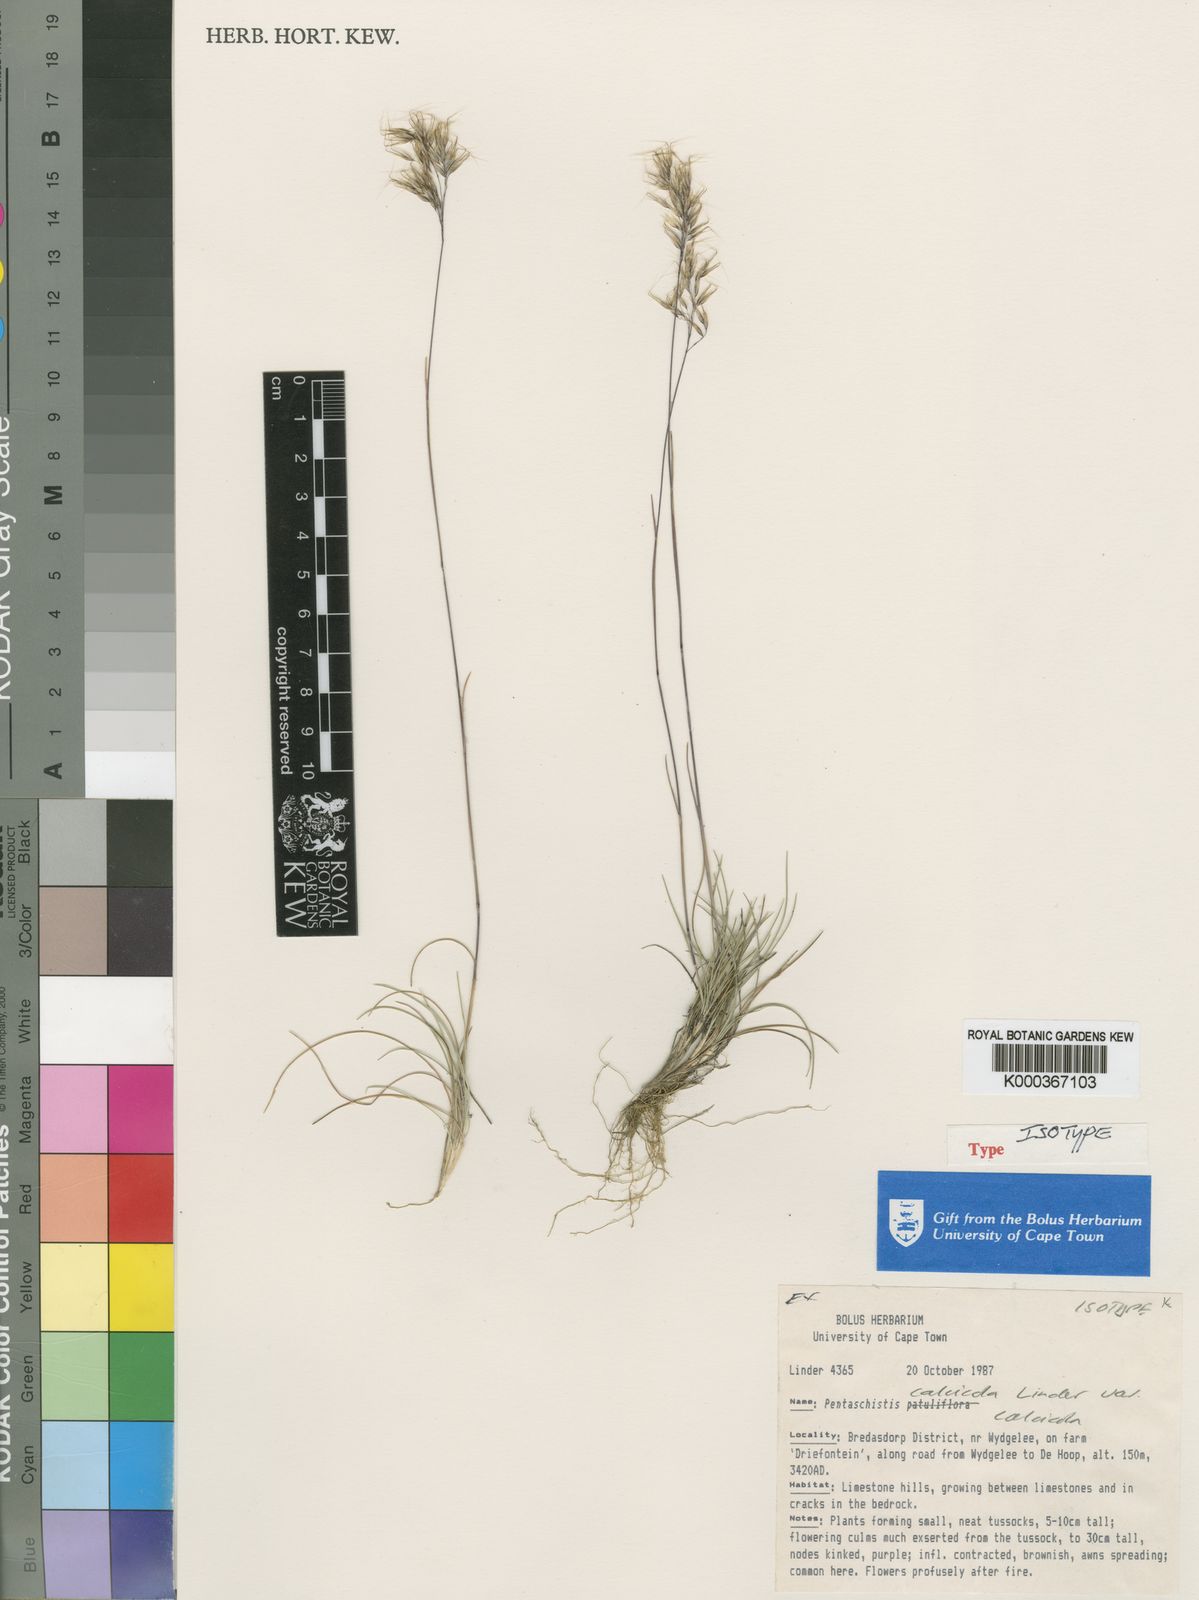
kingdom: Plantae
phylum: Tracheophyta
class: Liliopsida
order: Poales
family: Poaceae
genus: Pentameris
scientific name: Pentameris calcicola
